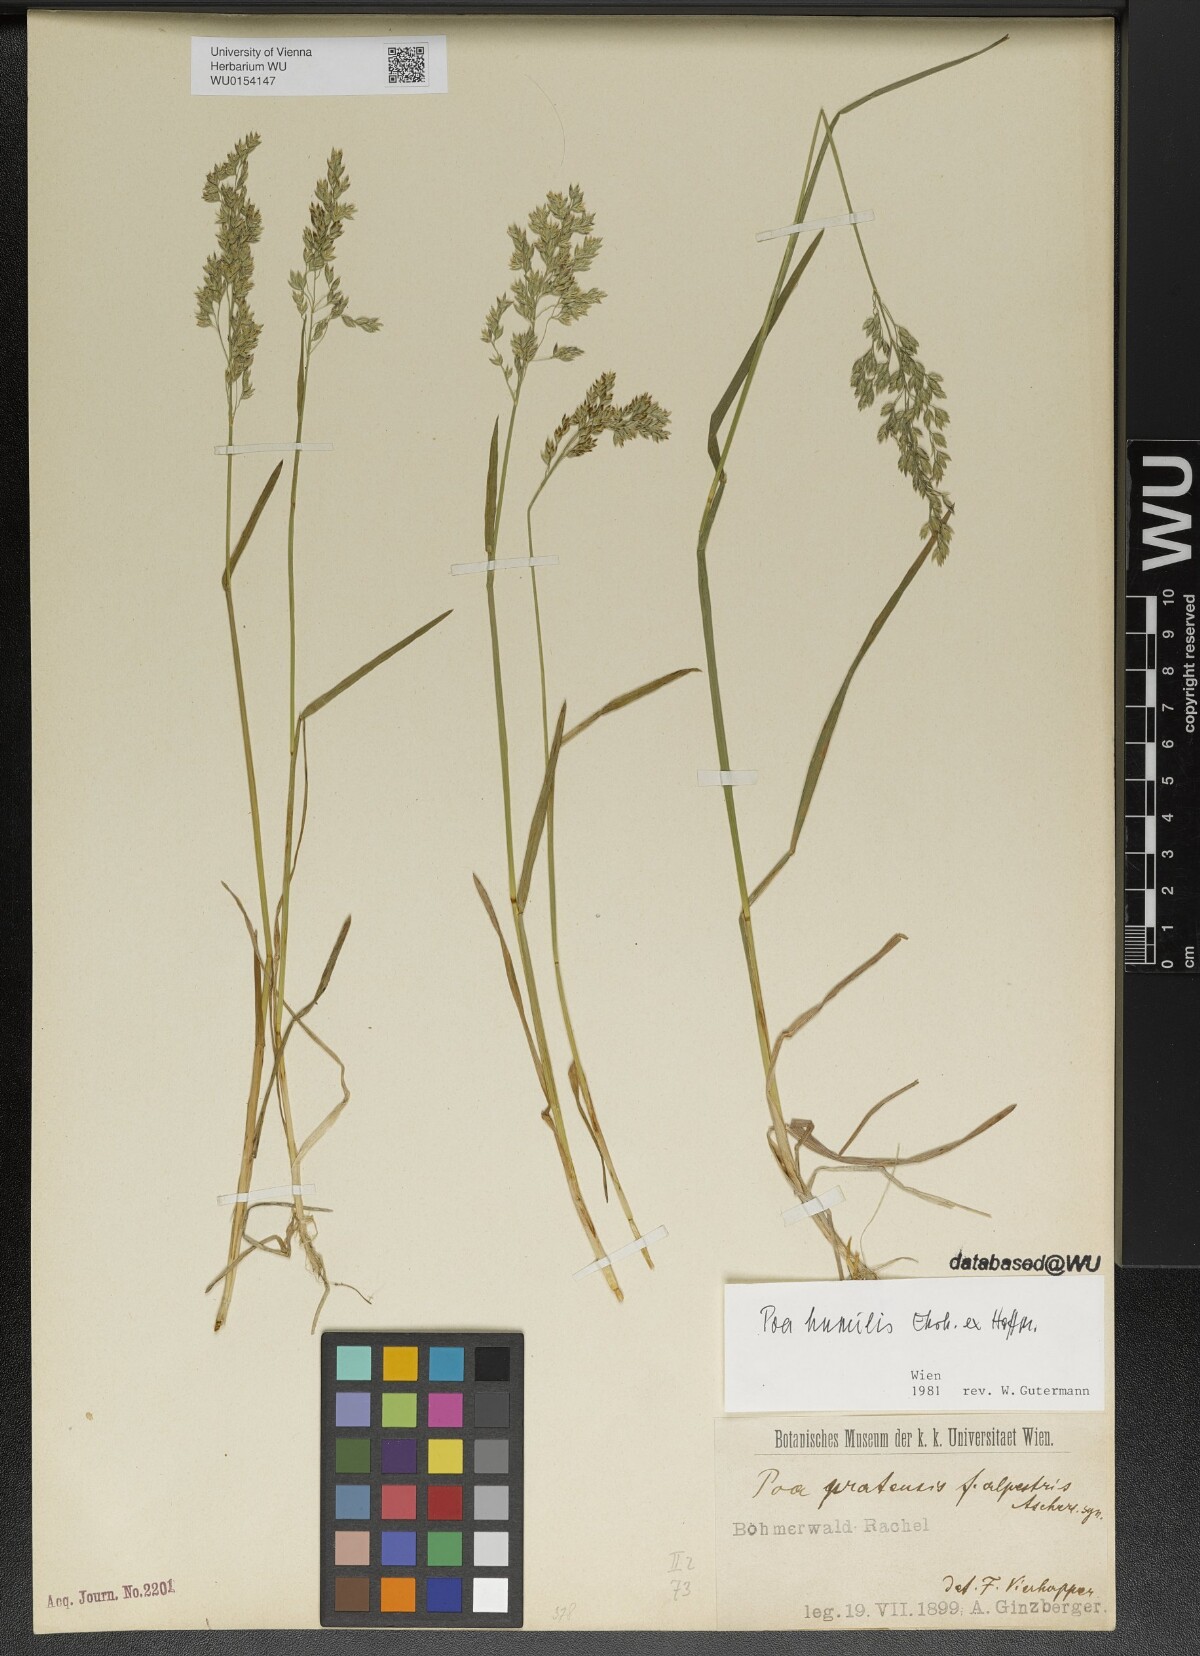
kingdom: Plantae
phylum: Tracheophyta
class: Liliopsida
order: Poales
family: Poaceae
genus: Poa
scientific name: Poa humilis
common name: Spreading meadow-grass
